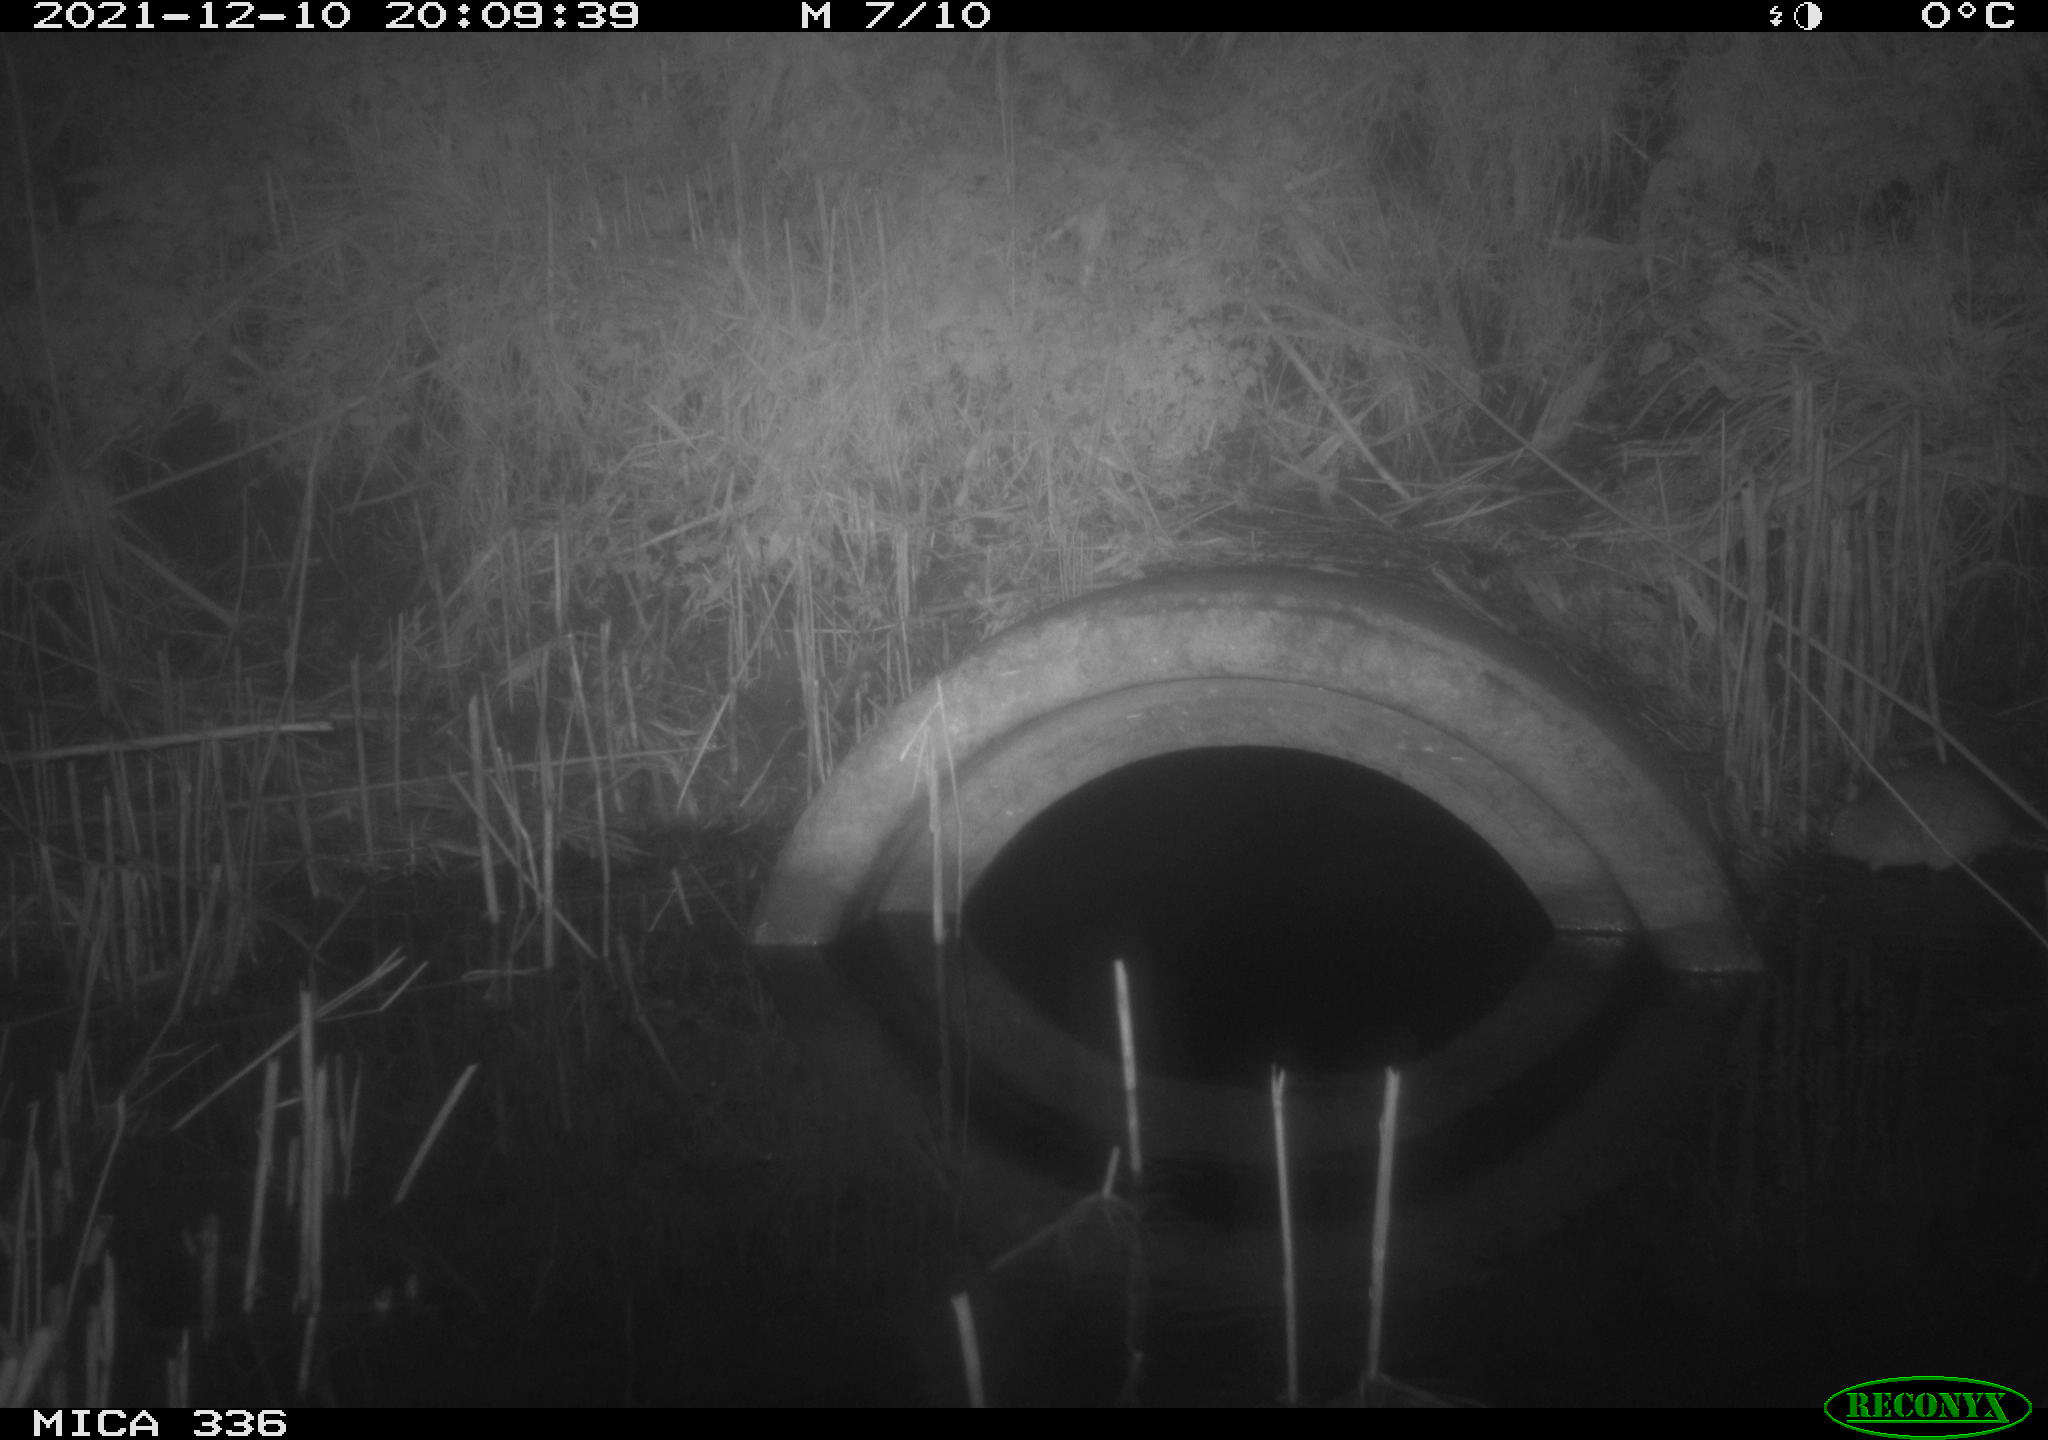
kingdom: Animalia
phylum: Chordata
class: Mammalia
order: Rodentia
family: Muridae
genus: Rattus
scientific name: Rattus norvegicus
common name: Brown rat
